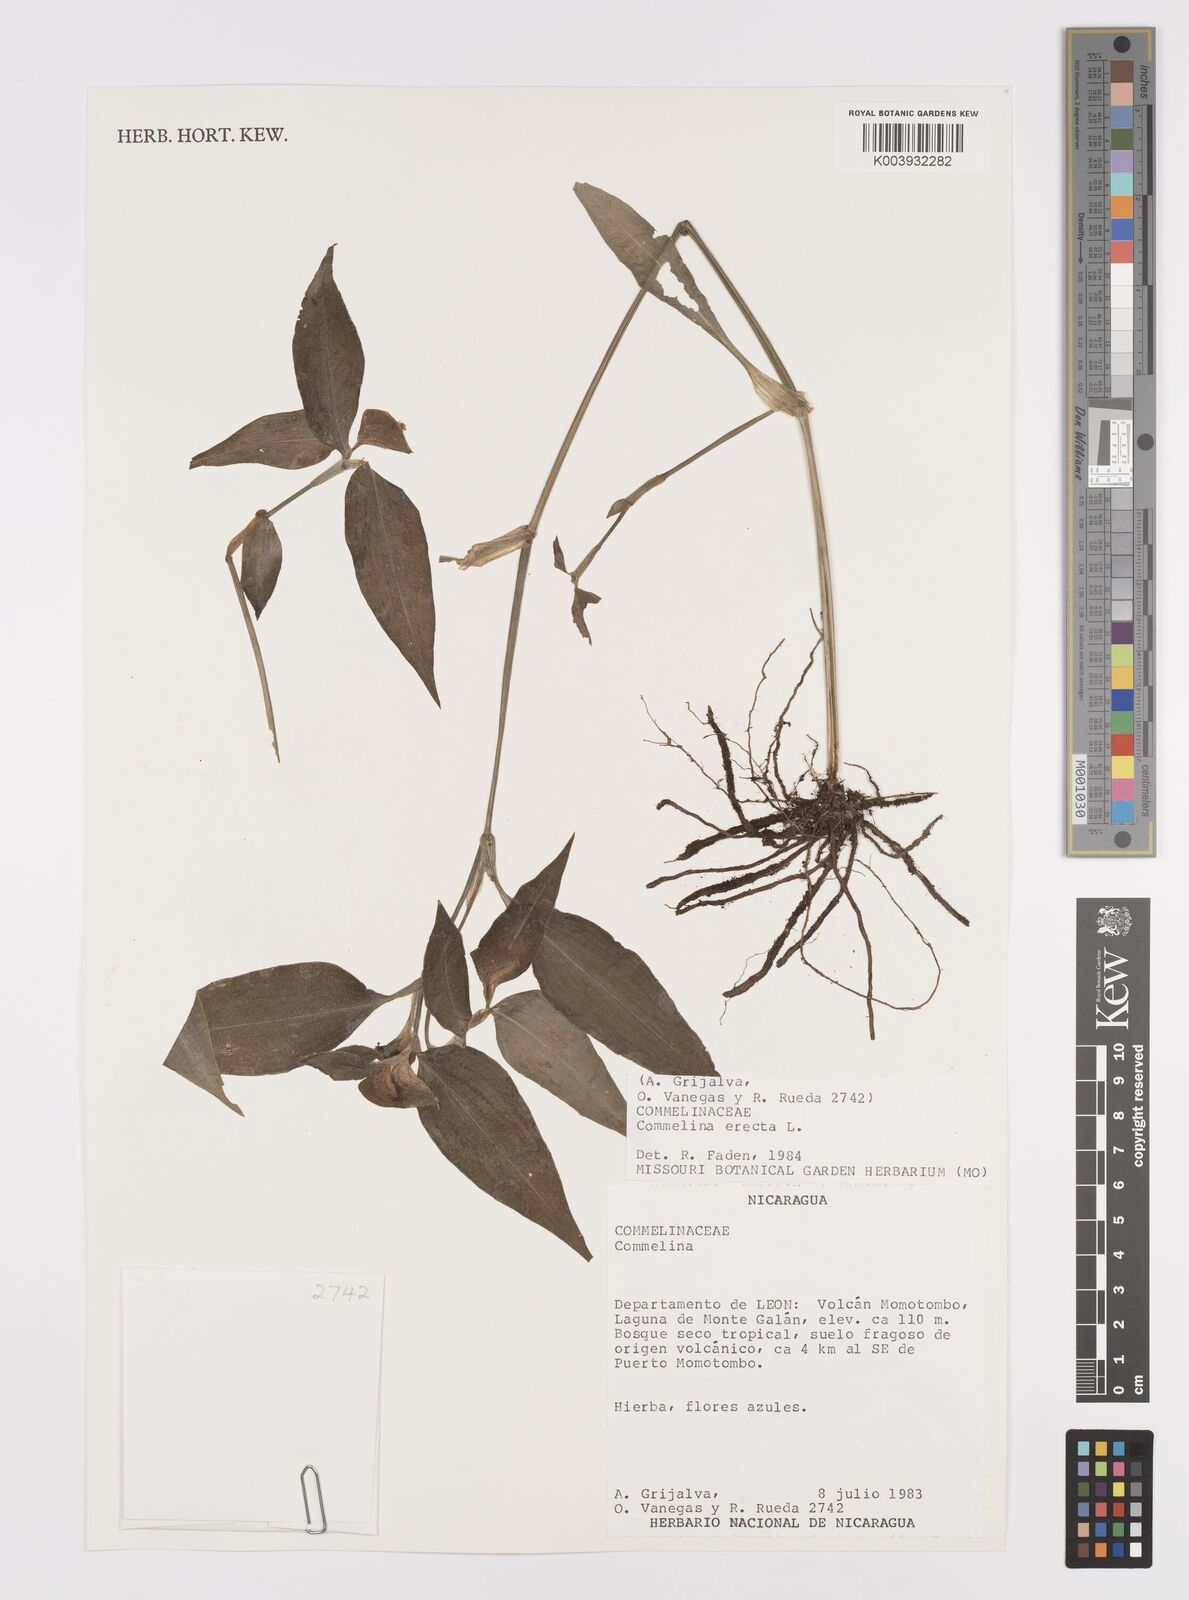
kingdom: Plantae
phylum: Tracheophyta
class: Liliopsida
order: Commelinales
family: Commelinaceae
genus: Commelina
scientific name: Commelina erecta
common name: Blousel blommetjie
